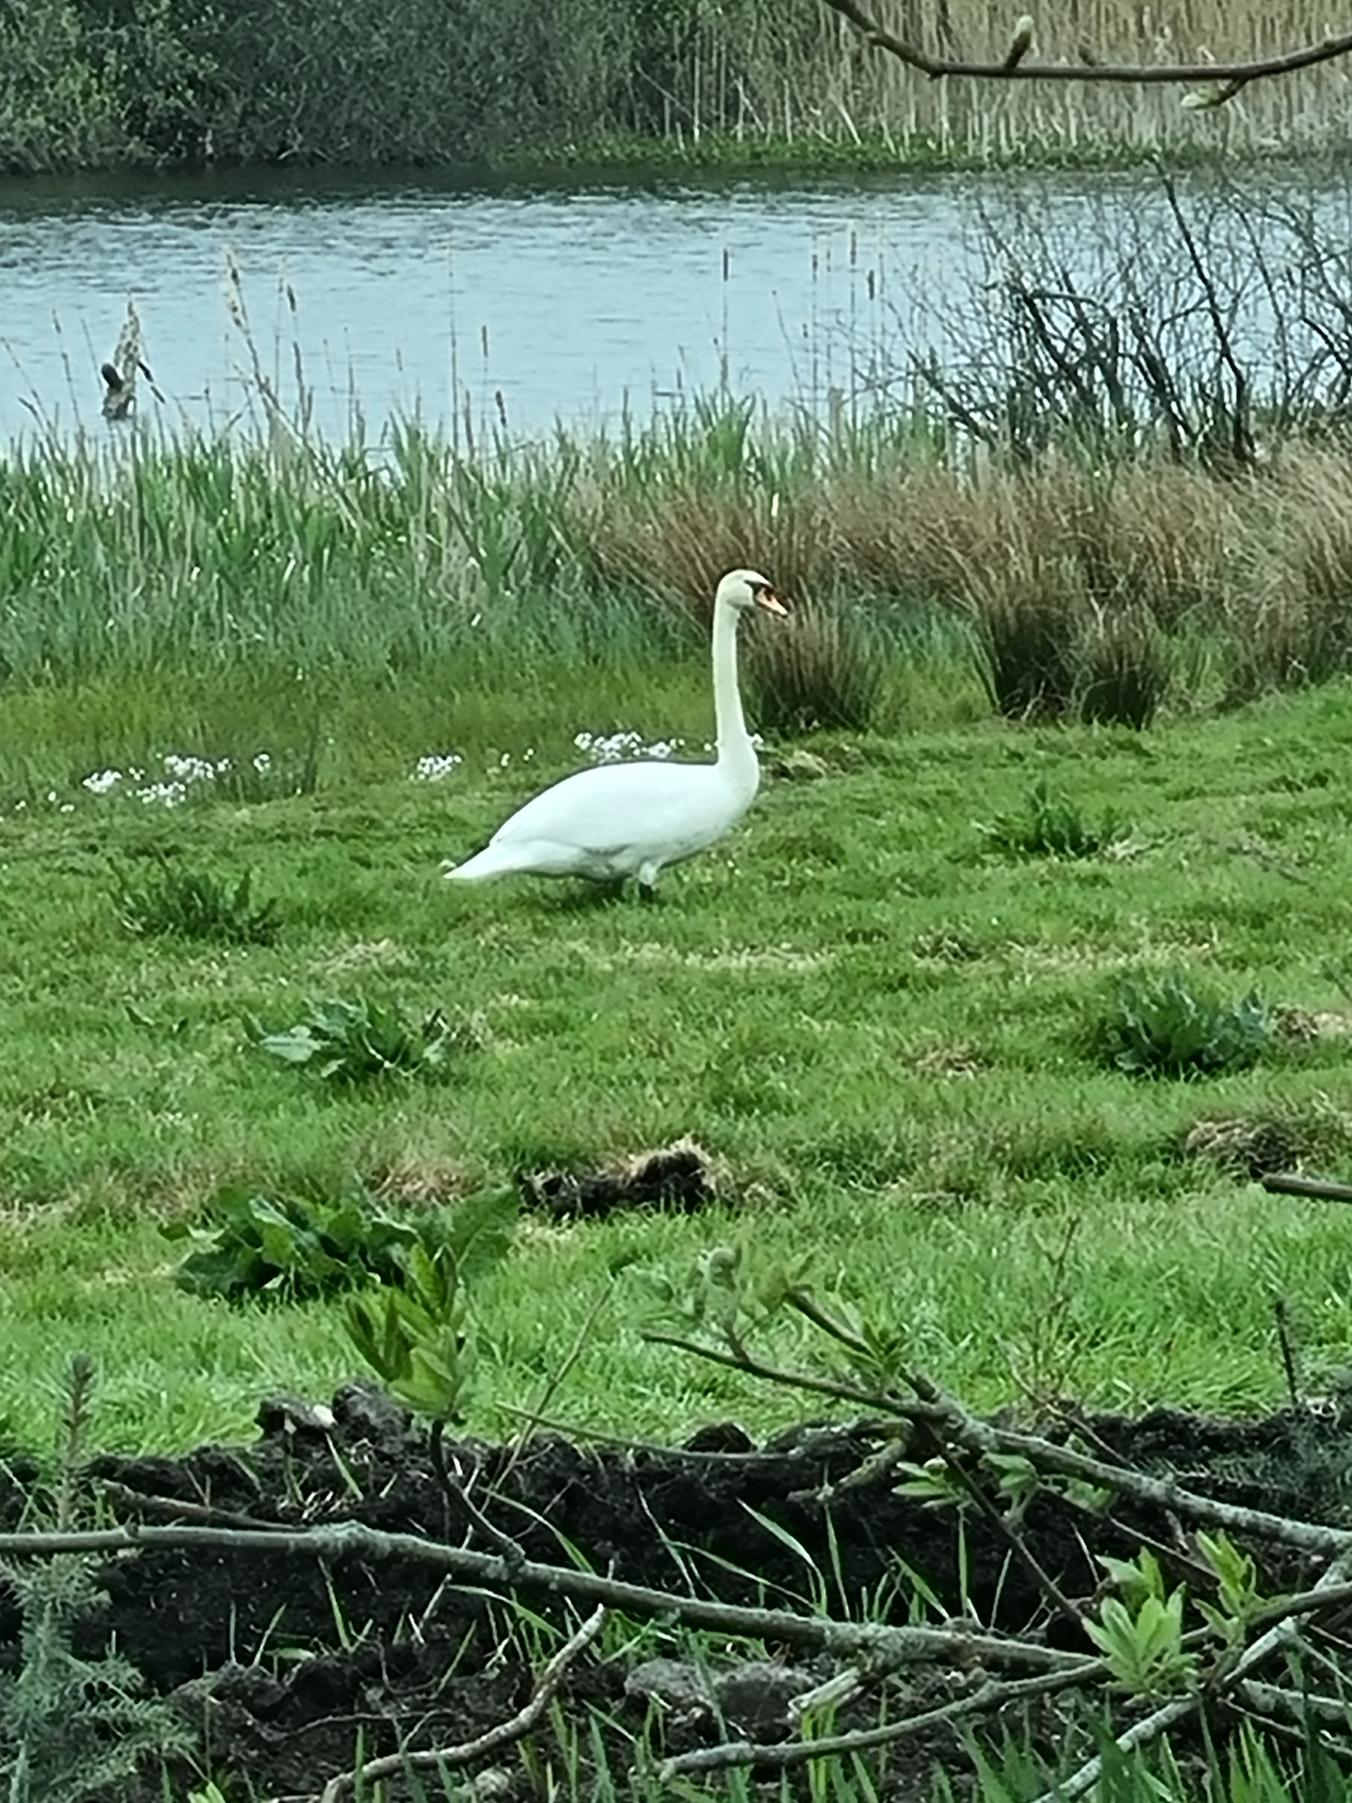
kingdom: Animalia
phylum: Chordata
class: Aves
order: Anseriformes
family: Anatidae
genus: Cygnus
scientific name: Cygnus olor
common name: Knopsvane
